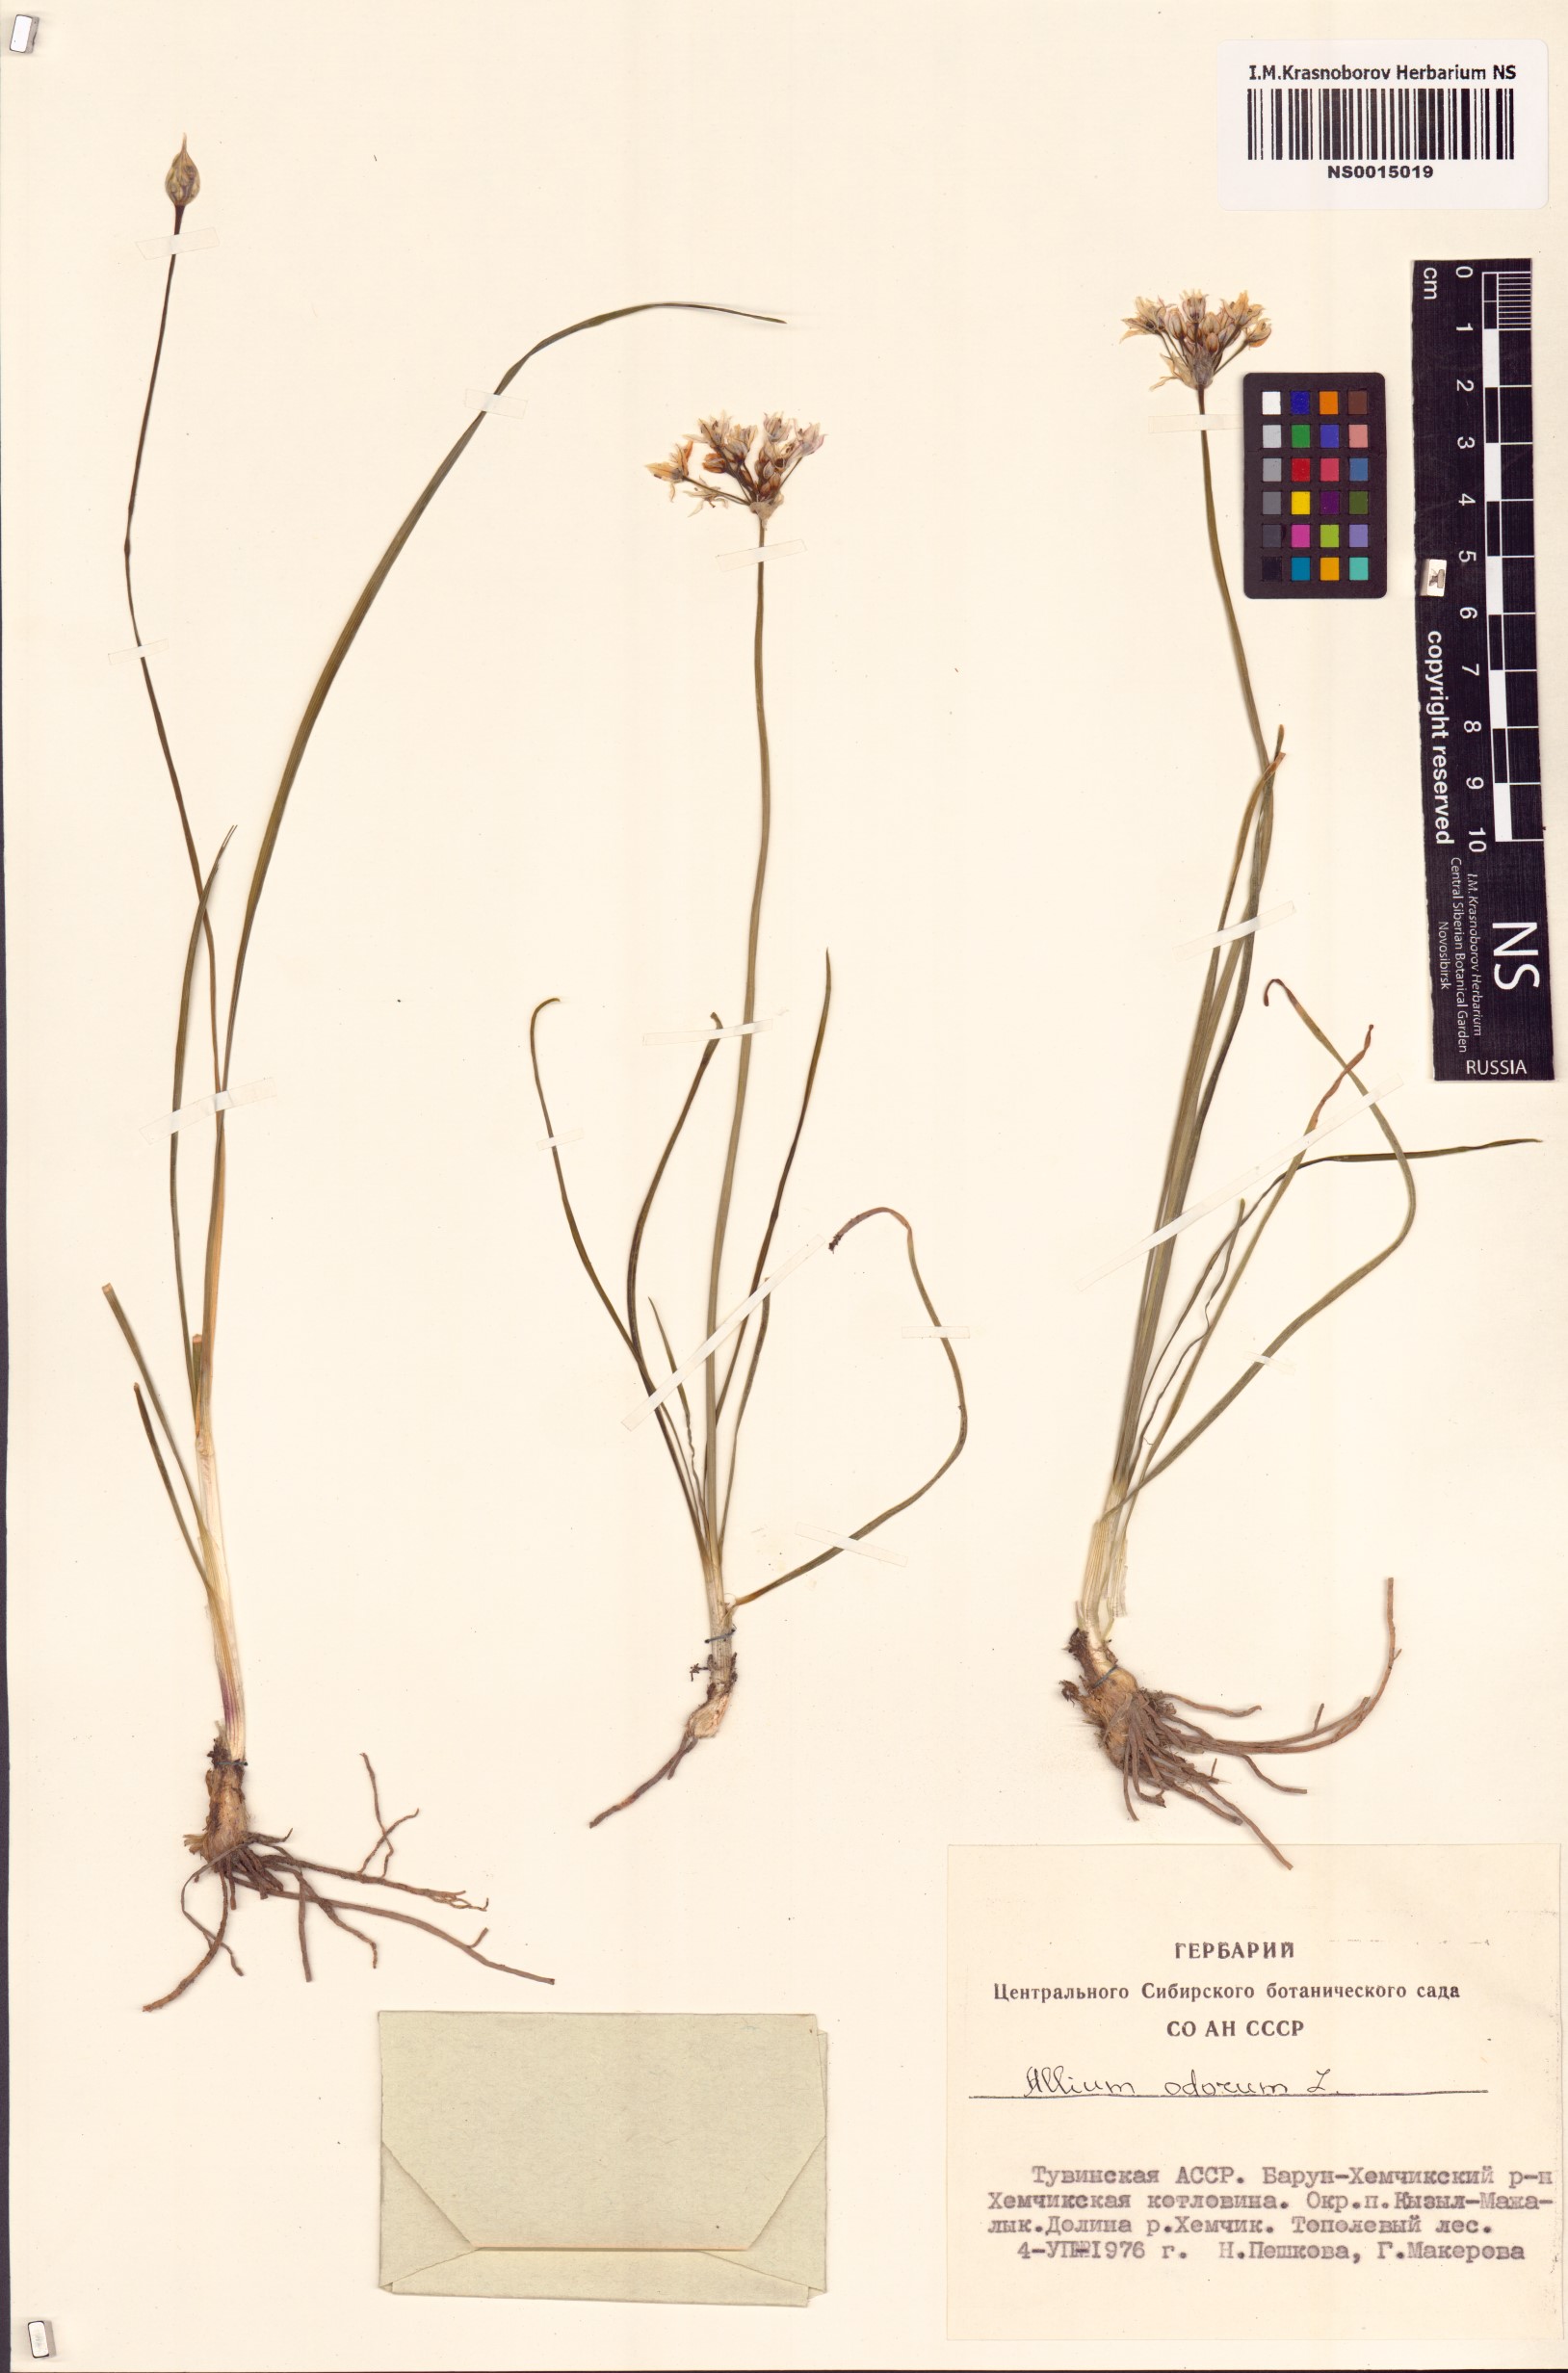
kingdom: Plantae
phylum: Tracheophyta
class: Liliopsida
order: Asparagales
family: Amaryllidaceae
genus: Allium
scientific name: Allium ramosum
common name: Fragrant garlic
